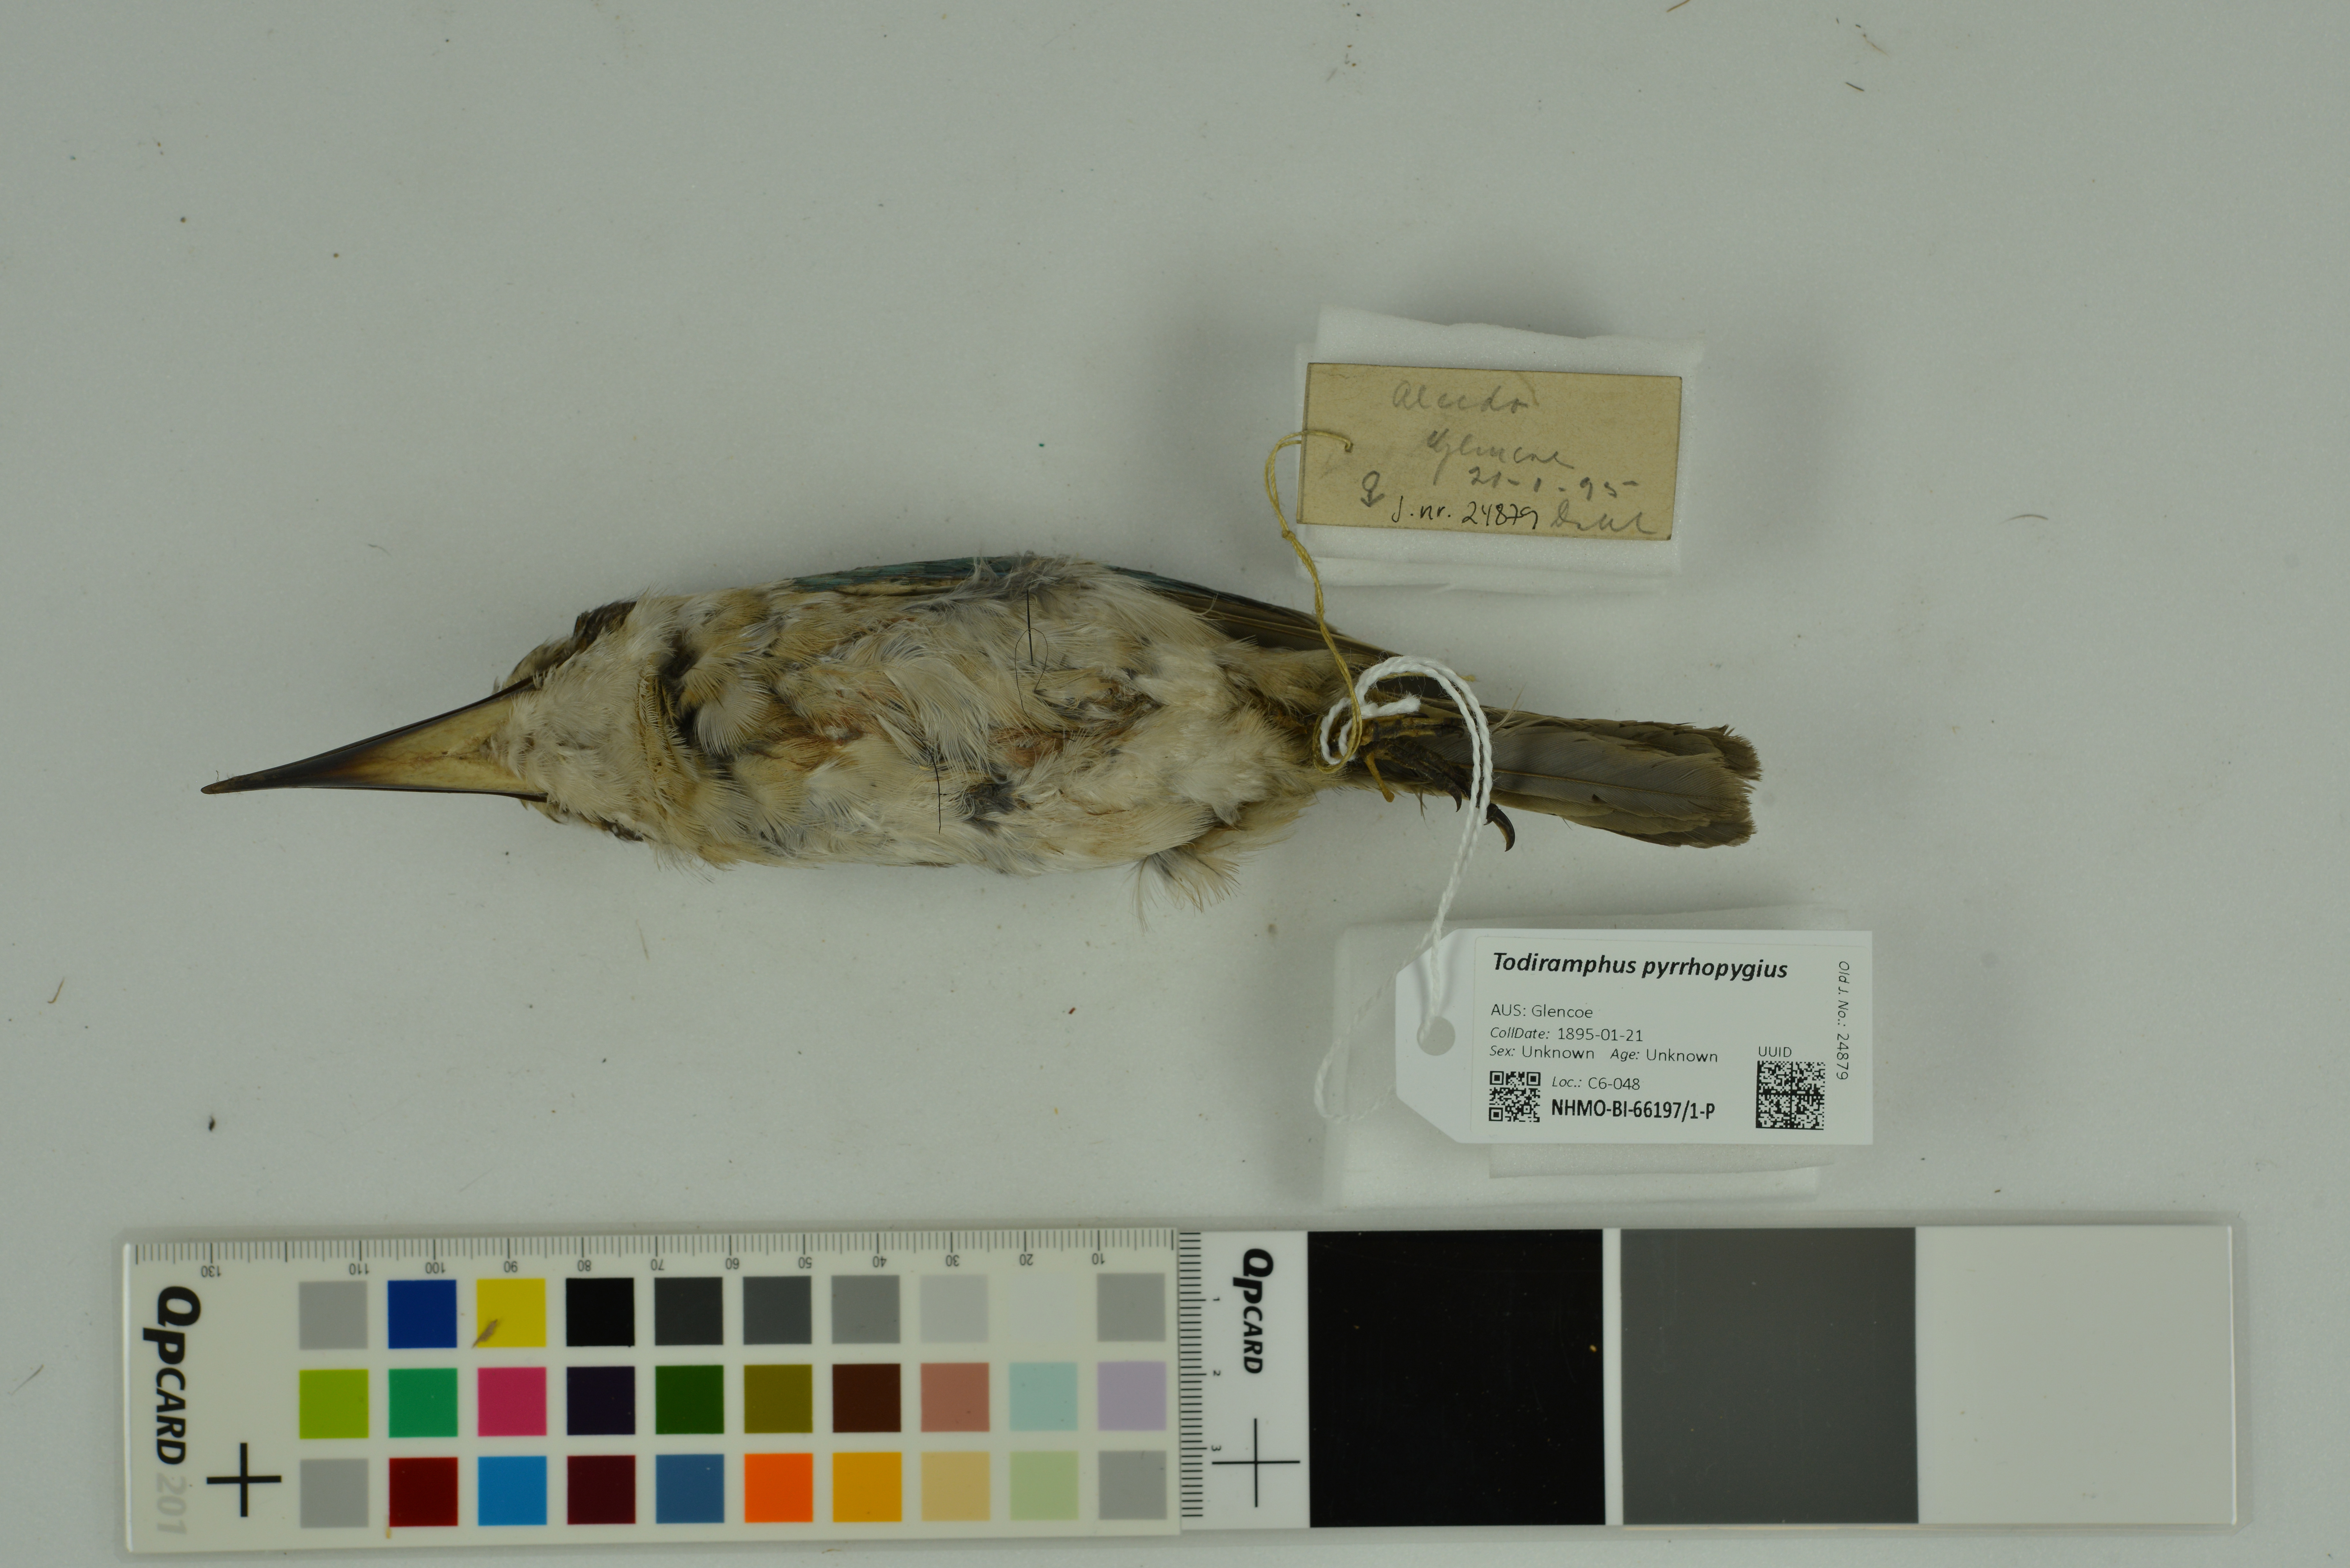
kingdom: Animalia
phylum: Chordata
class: Aves
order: Coraciiformes
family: Alcedinidae
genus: Todiramphus
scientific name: Todiramphus pyrrhopygius
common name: Red-backed kingfisher
